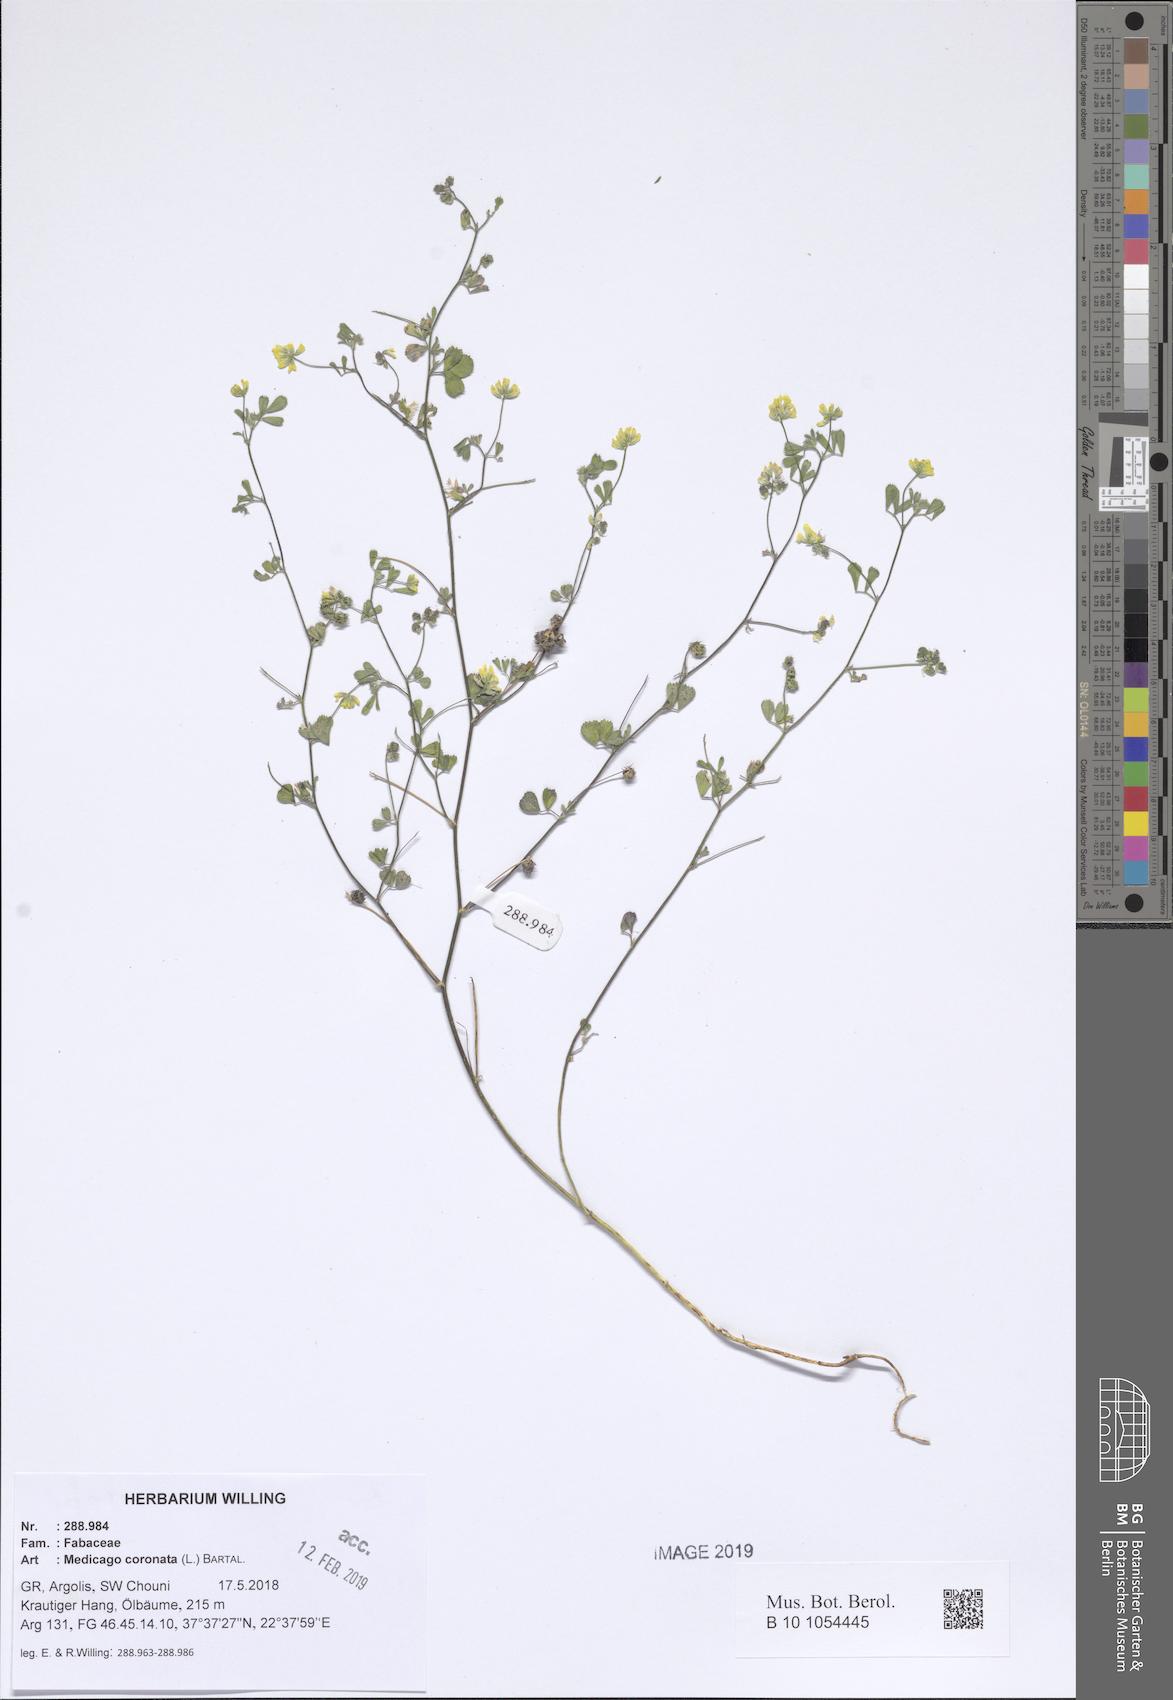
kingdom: Plantae
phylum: Tracheophyta
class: Magnoliopsida
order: Fabales
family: Fabaceae
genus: Medicago
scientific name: Medicago coronata
